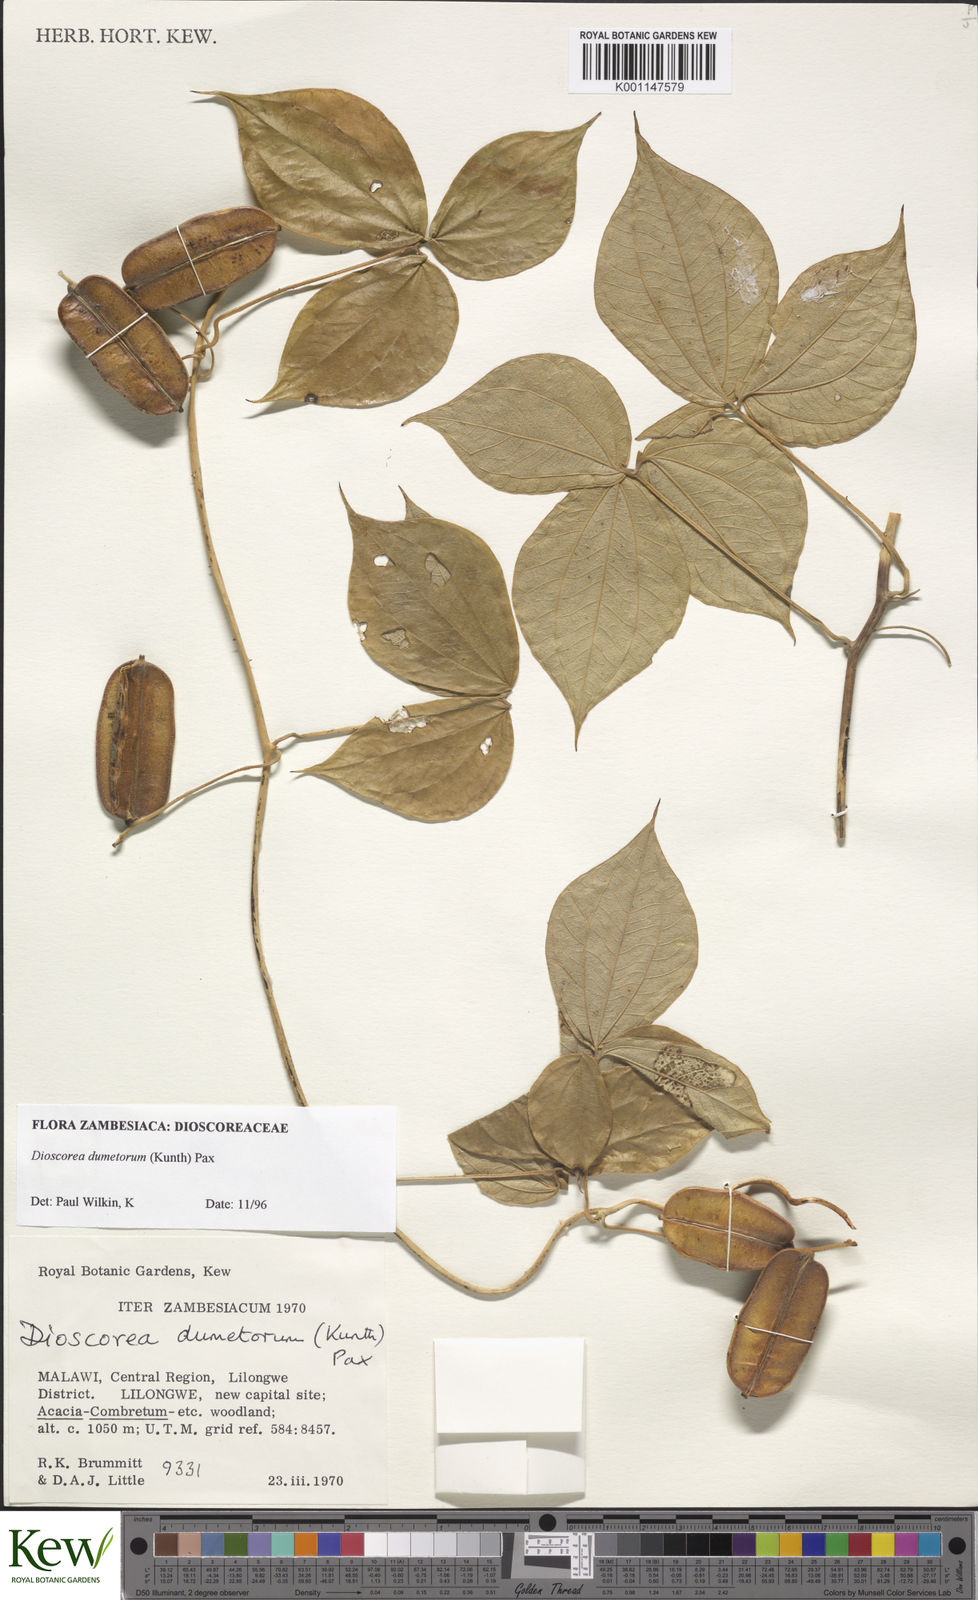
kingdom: Plantae
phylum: Tracheophyta
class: Liliopsida
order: Dioscoreales
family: Dioscoreaceae
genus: Dioscorea
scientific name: Dioscorea dumetorum
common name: African bitter yam
